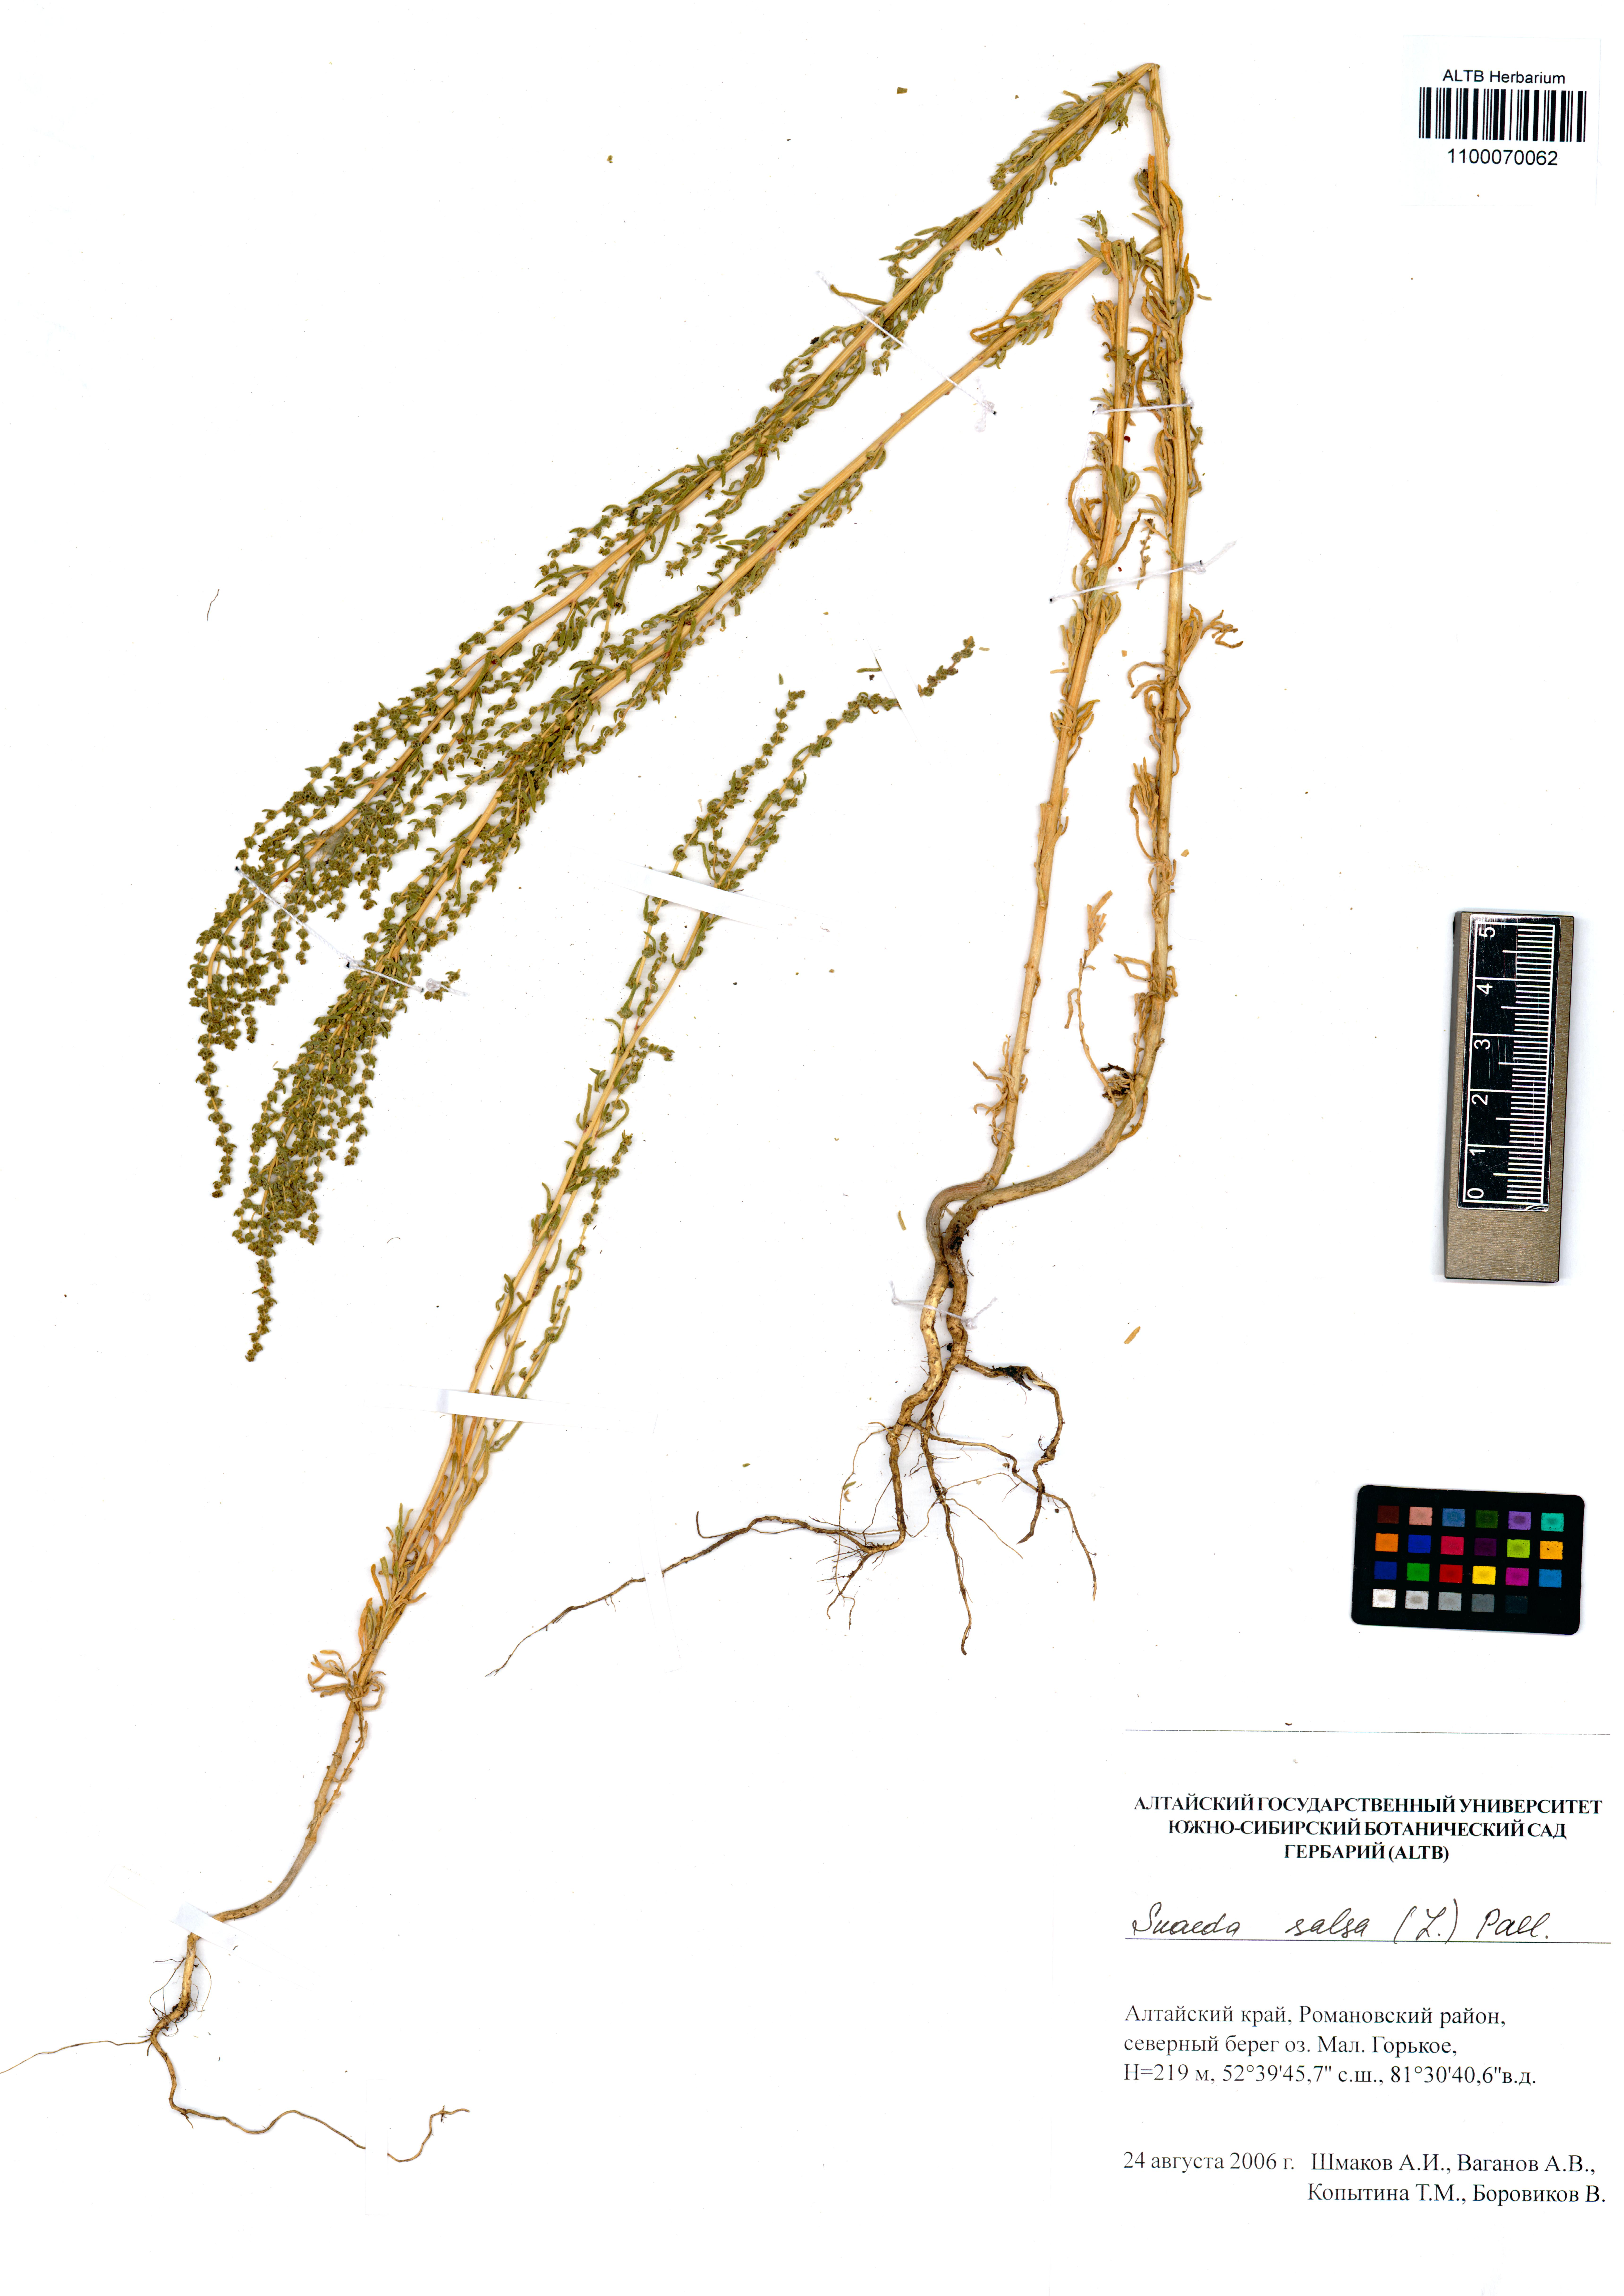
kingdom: Plantae
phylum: Tracheophyta
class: Magnoliopsida
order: Caryophyllales
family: Amaranthaceae
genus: Suaeda
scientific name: Suaeda salsa
